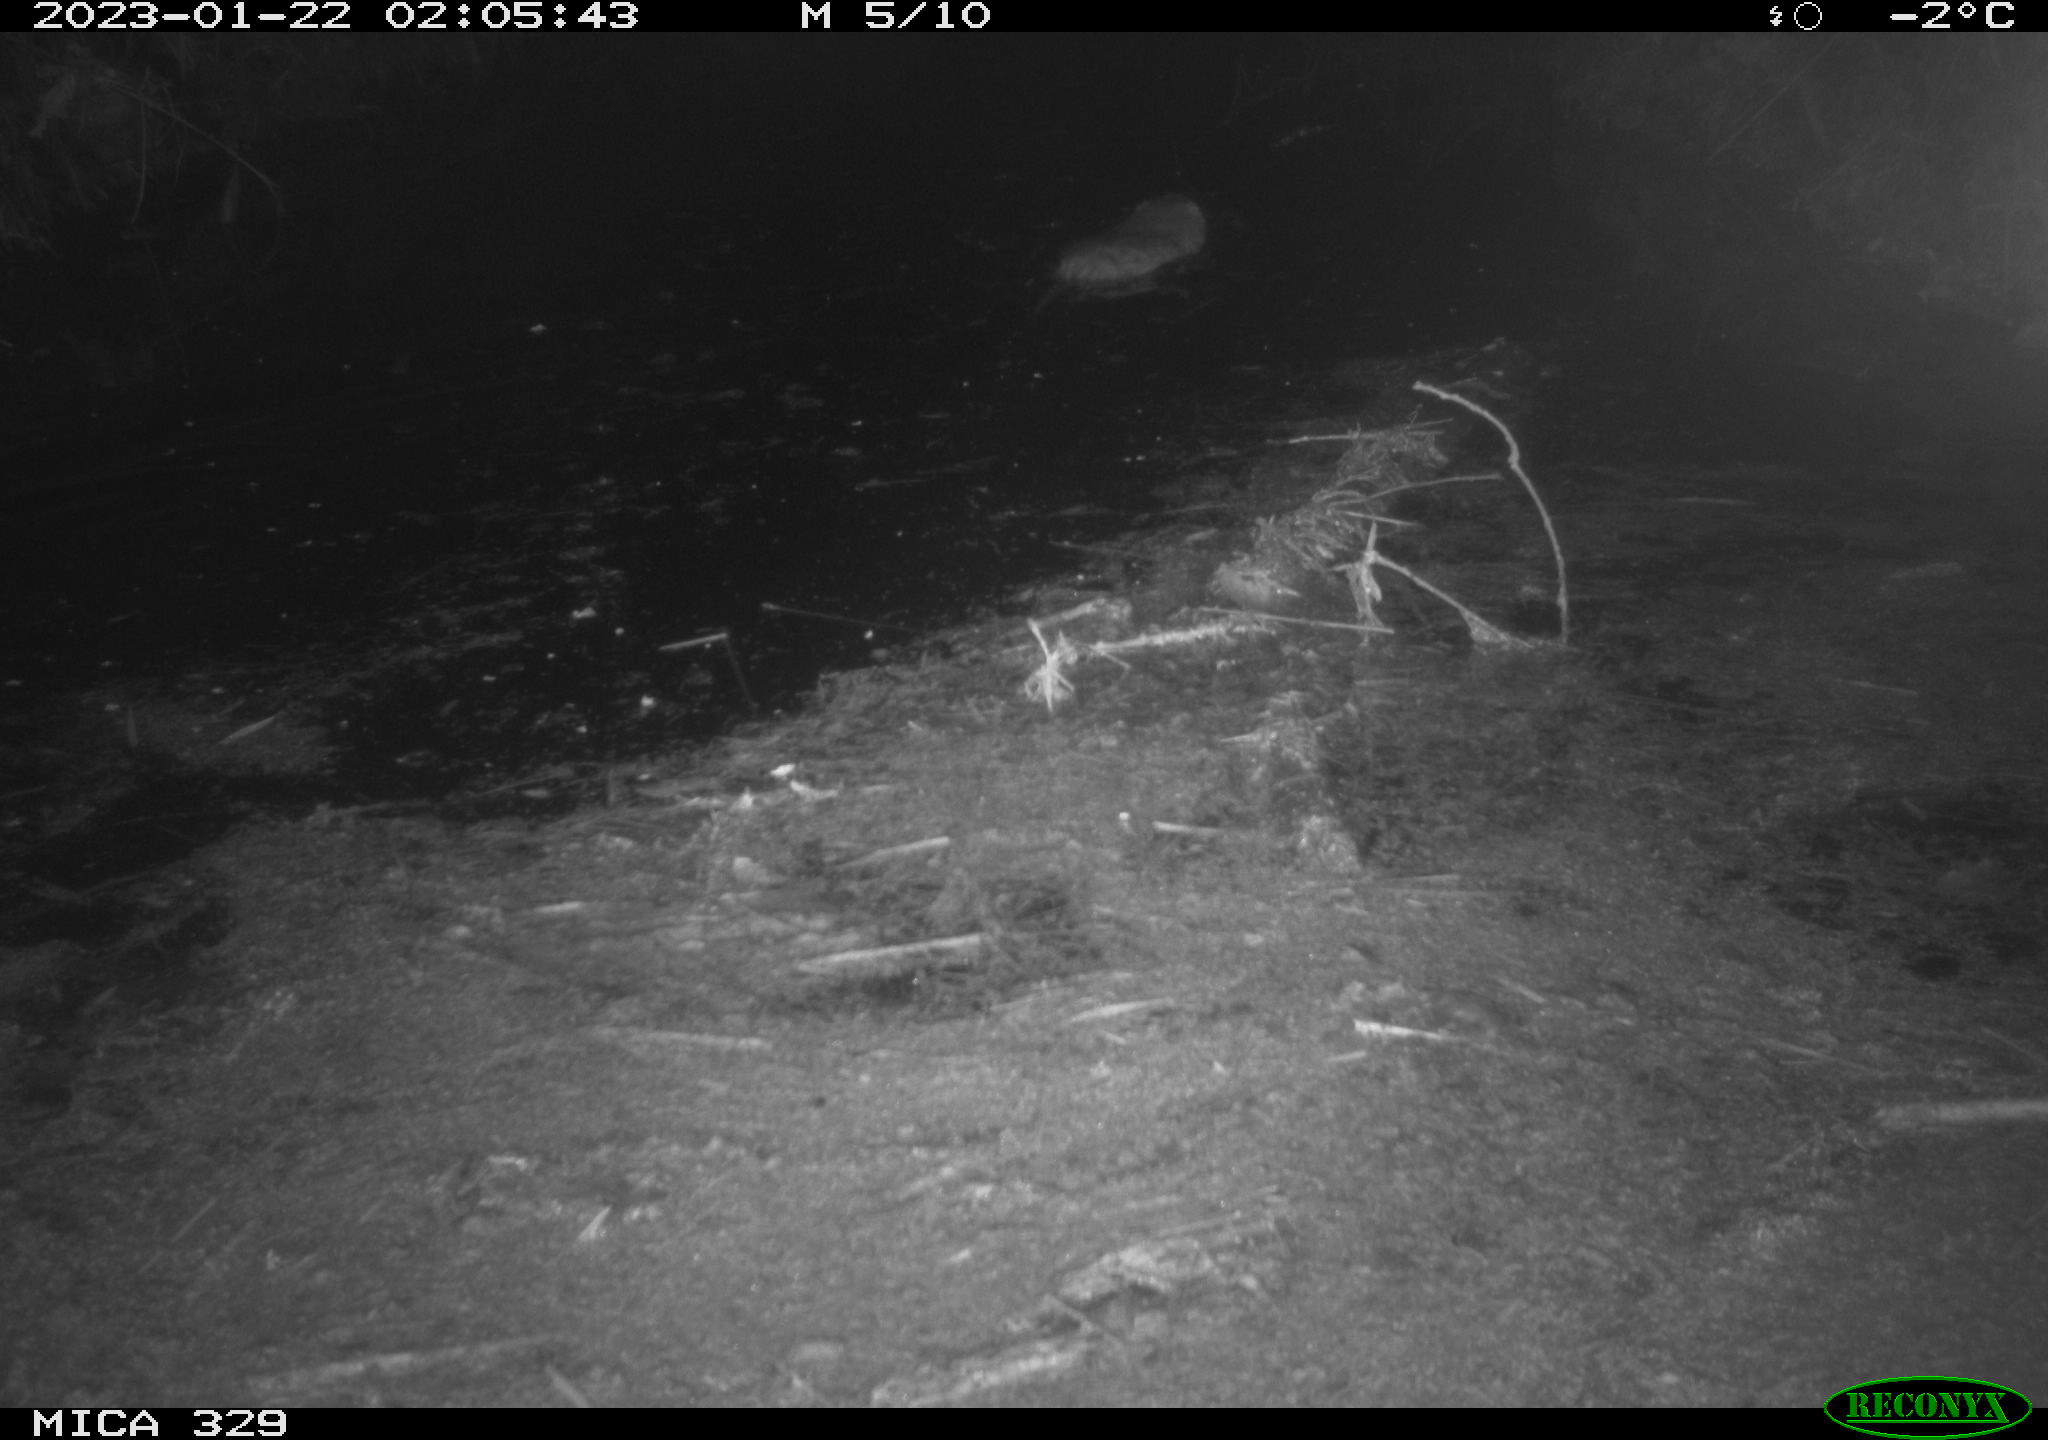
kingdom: Animalia
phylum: Chordata
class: Mammalia
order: Rodentia
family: Cricetidae
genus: Ondatra
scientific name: Ondatra zibethicus
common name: Muskrat
